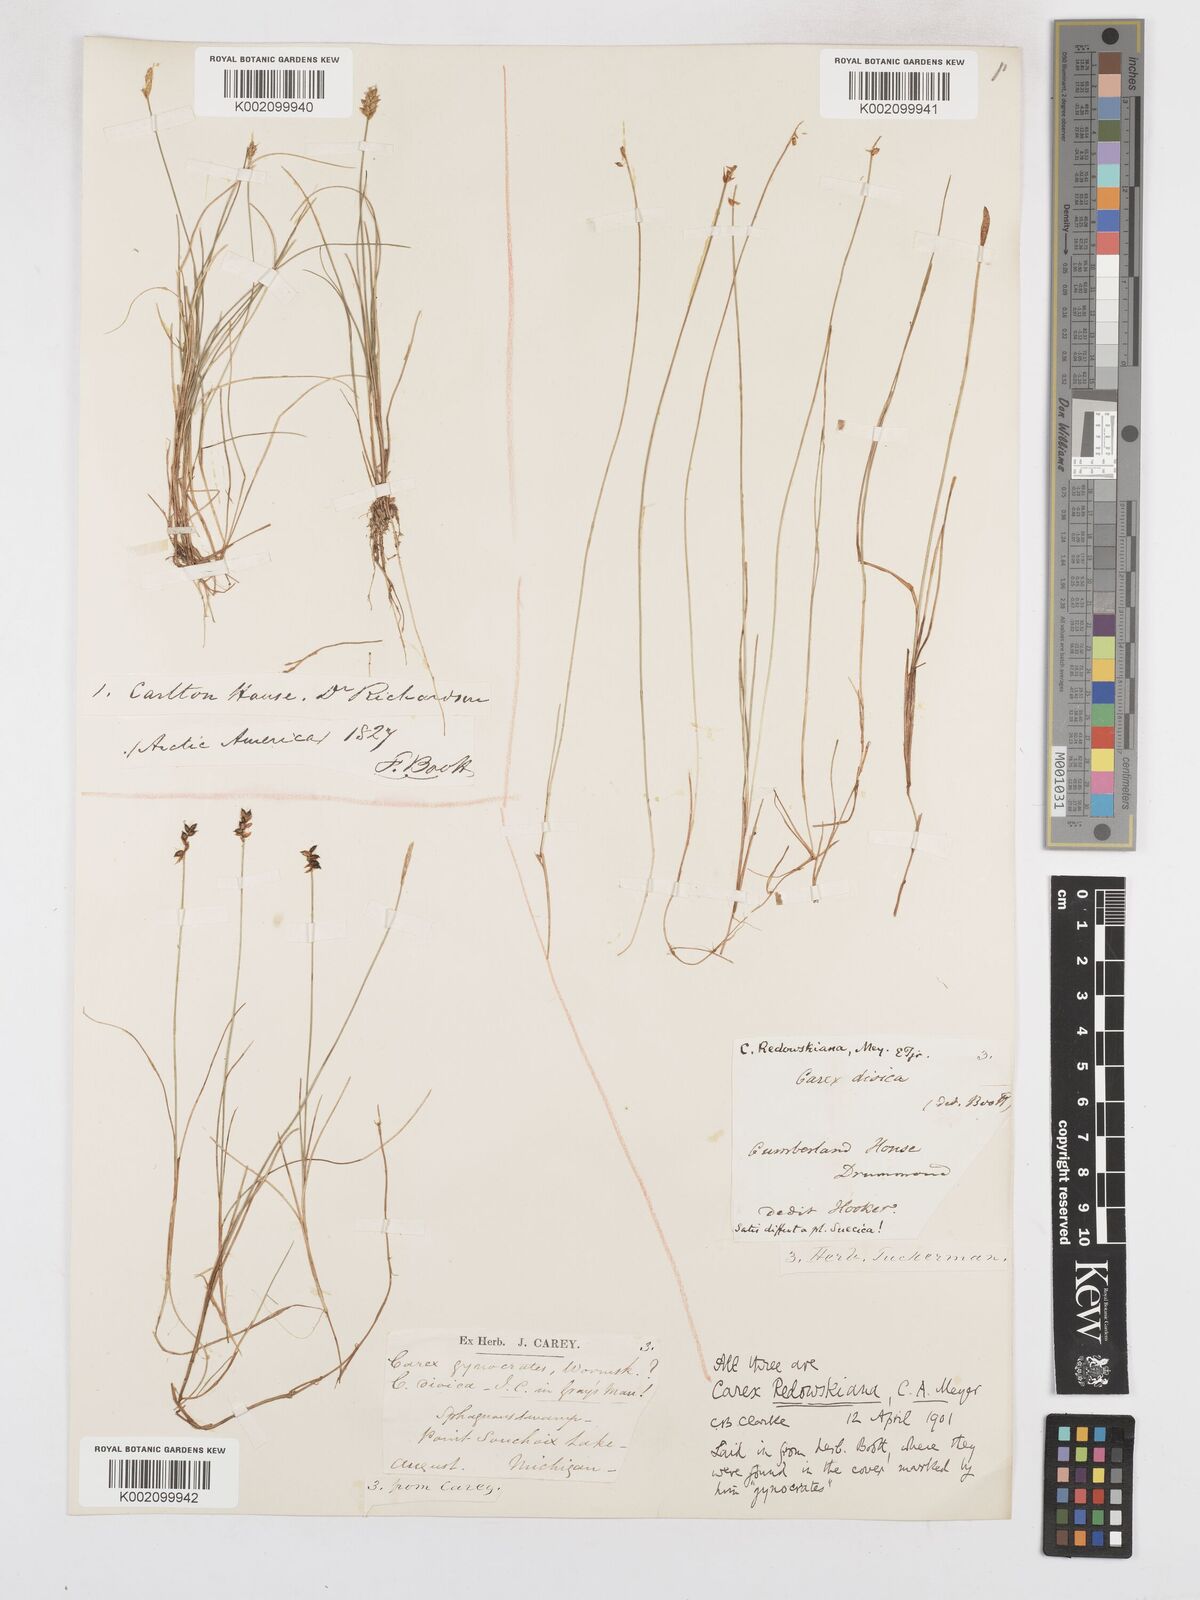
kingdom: Plantae
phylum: Tracheophyta
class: Liliopsida
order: Poales
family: Cyperaceae
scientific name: Cyperaceae
